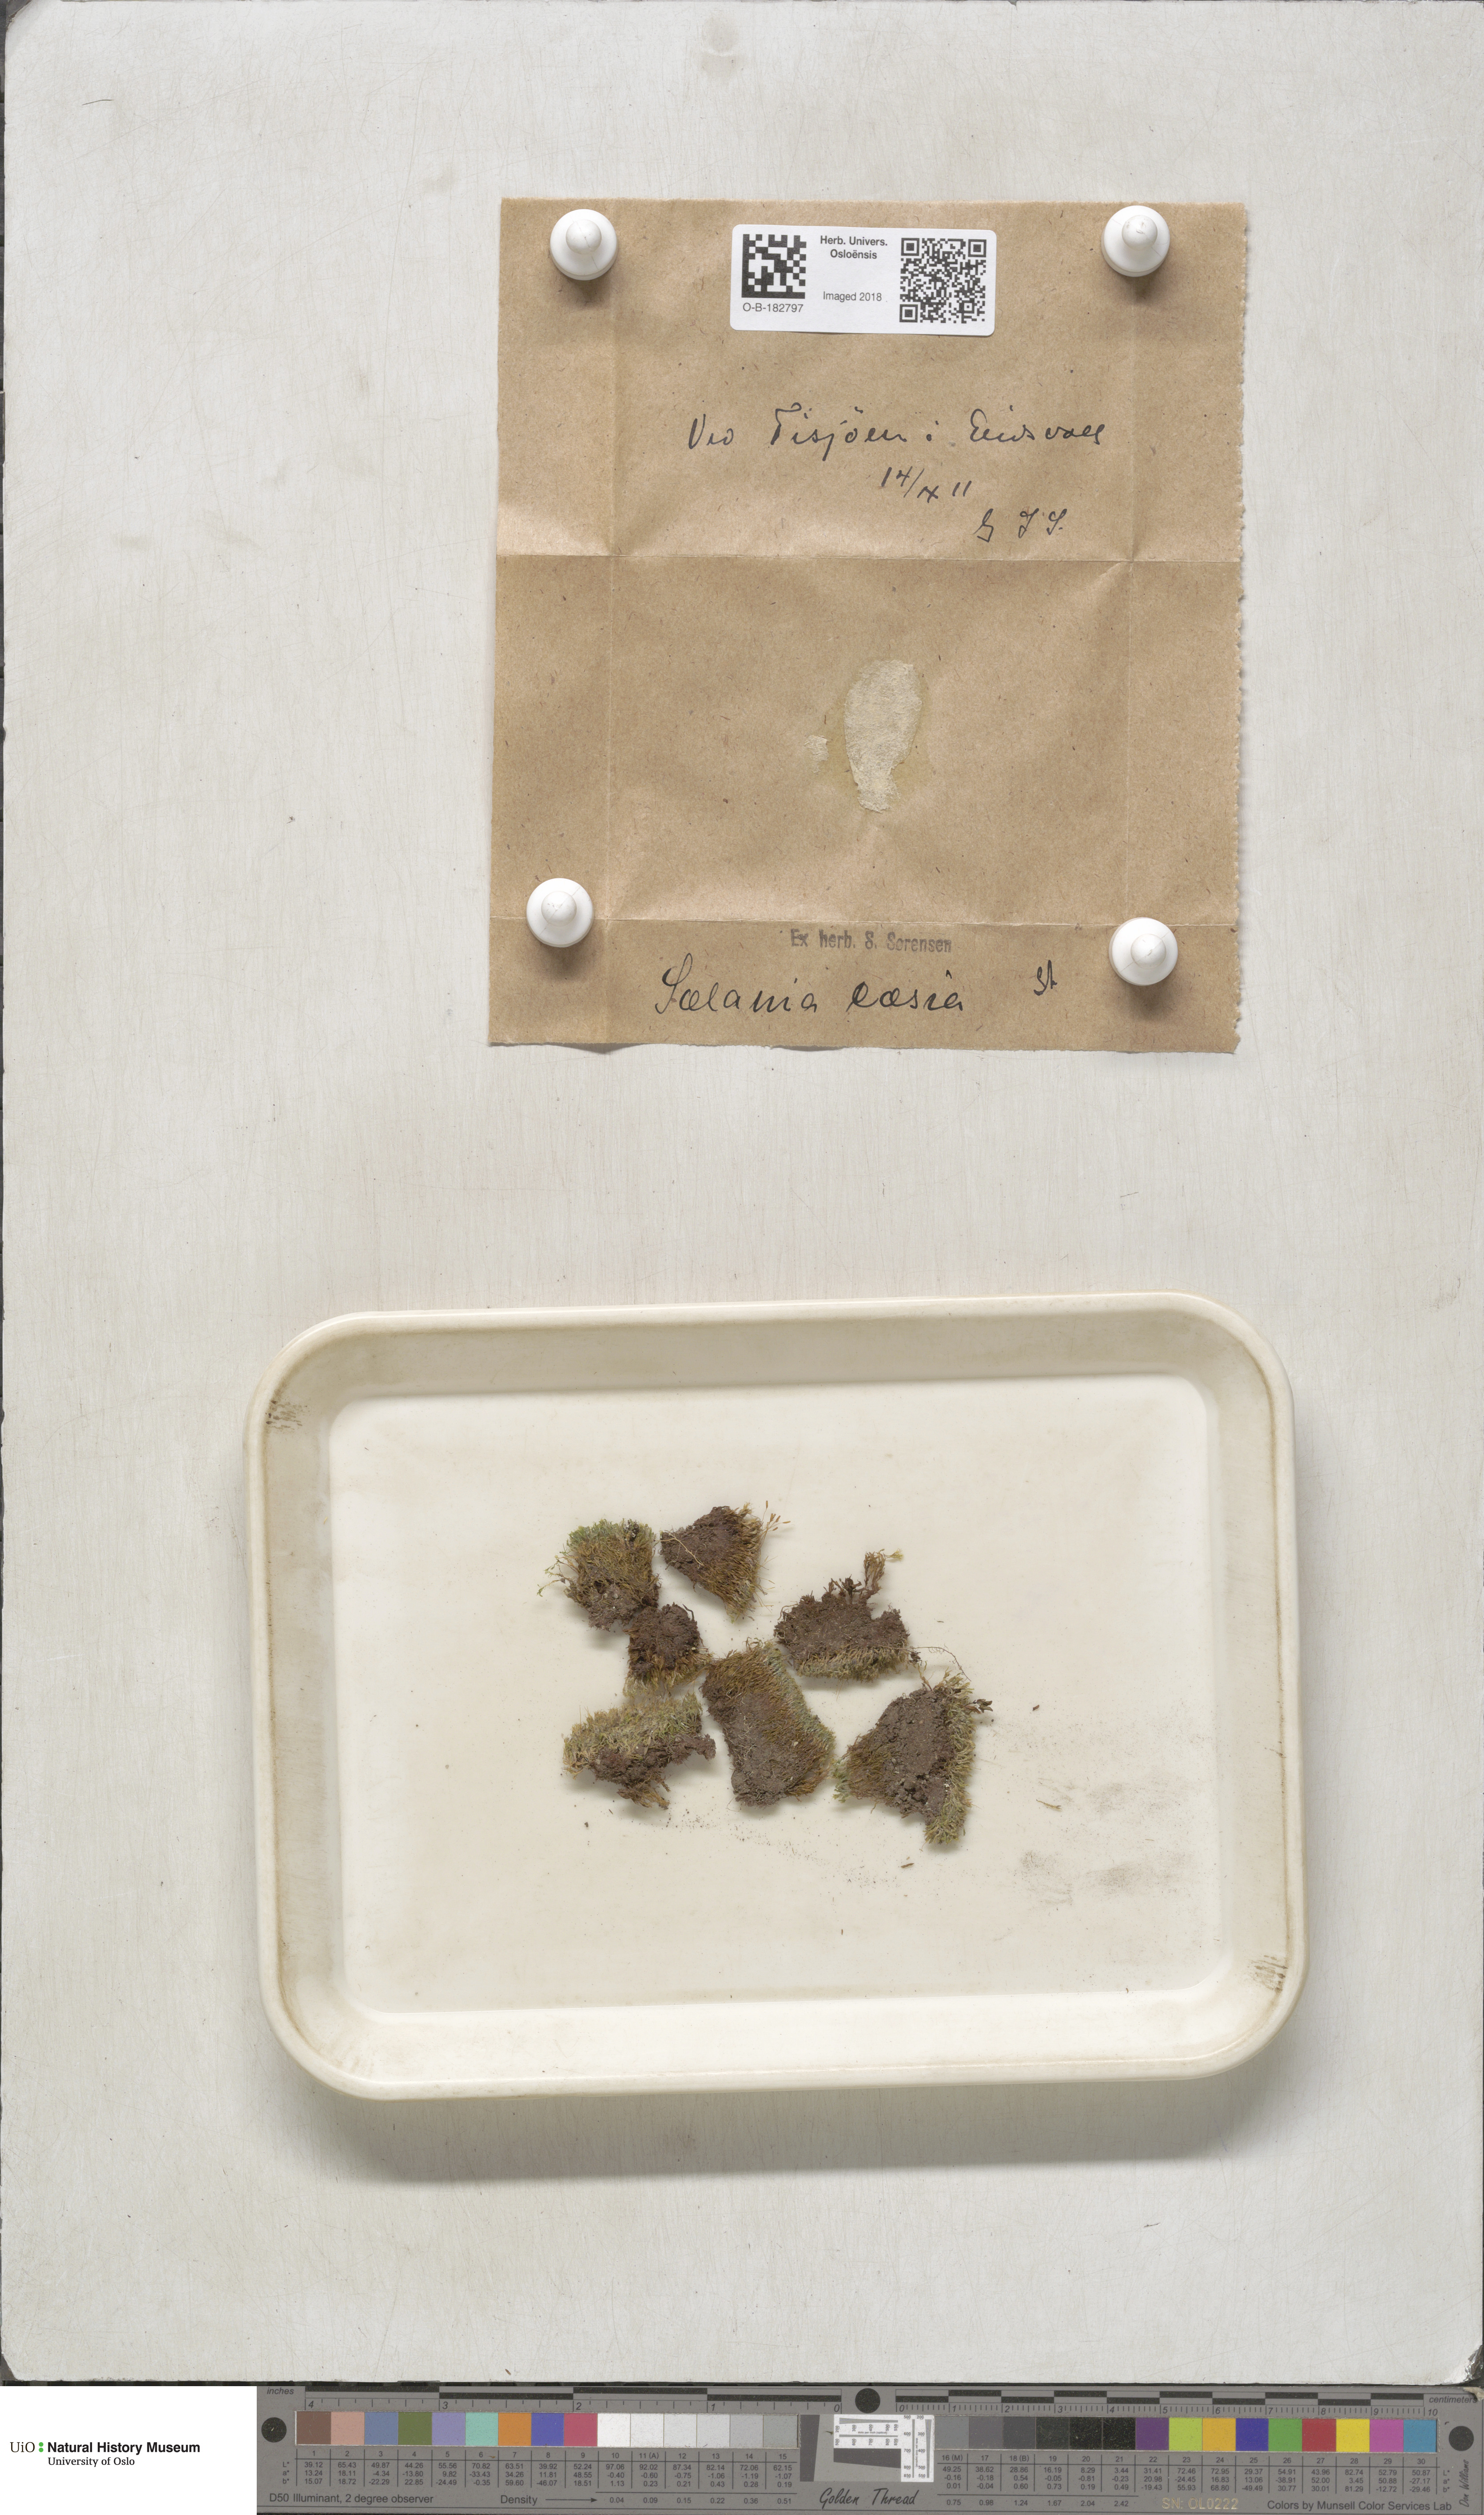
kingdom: Plantae
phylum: Bryophyta
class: Bryopsida
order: Grimmiales
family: Saelaniaceae
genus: Saelania
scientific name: Saelania glaucescens
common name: Blue dew-moss
